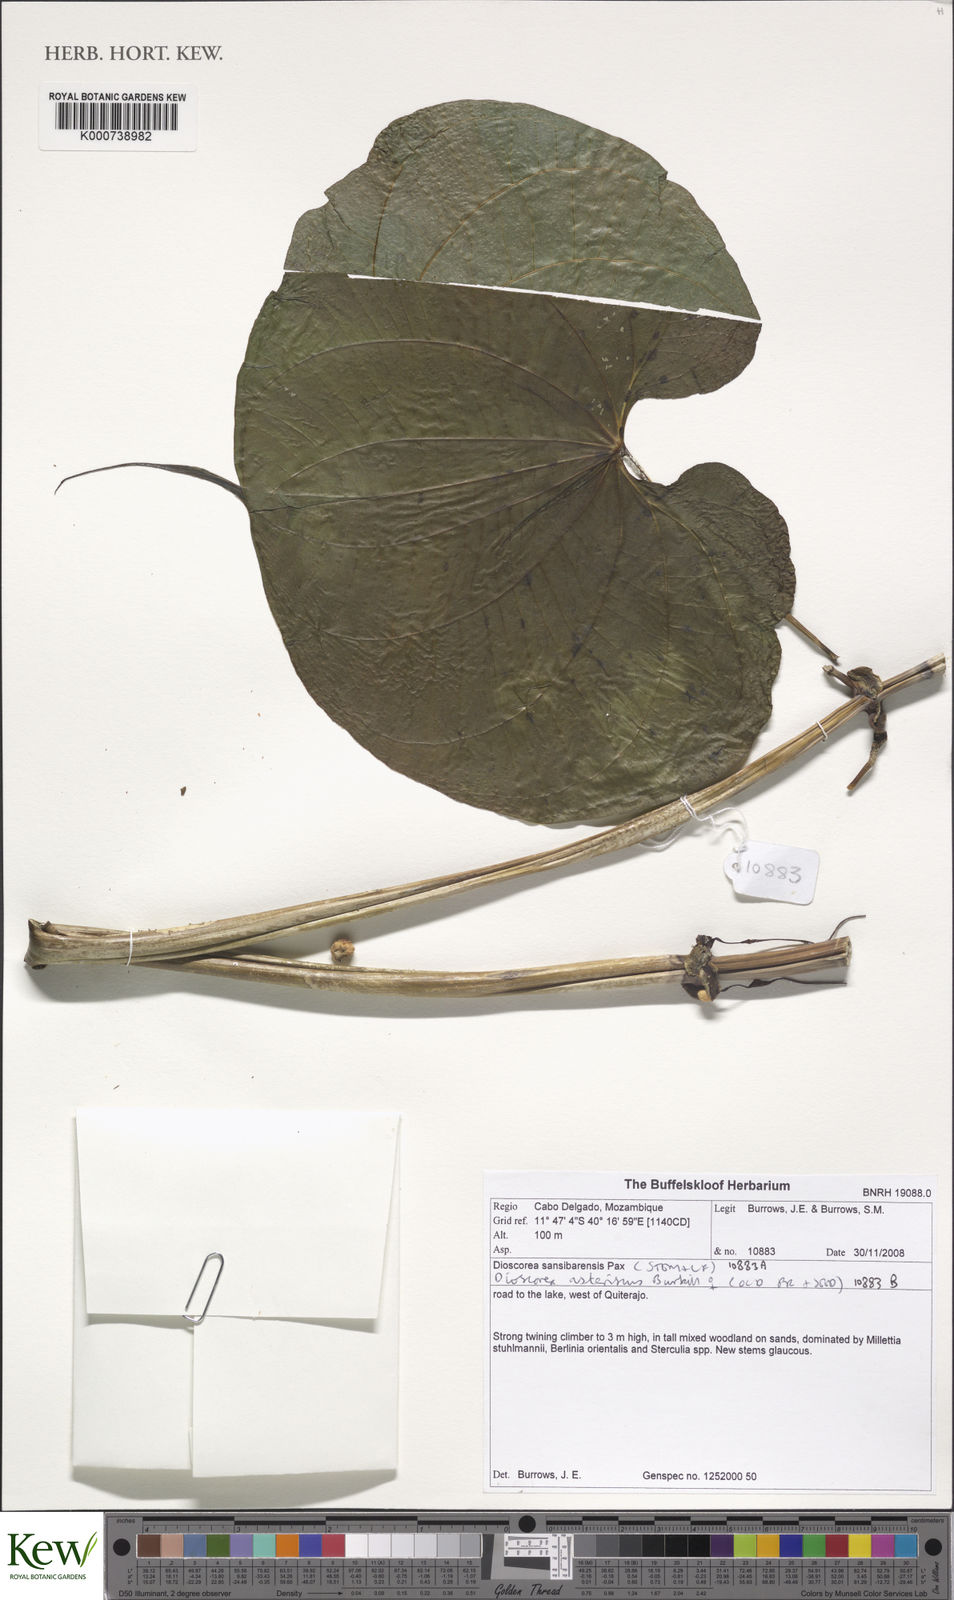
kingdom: Plantae
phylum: Tracheophyta
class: Liliopsida
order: Dioscoreales
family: Dioscoreaceae
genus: Dioscorea
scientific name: Dioscorea asteriscus
